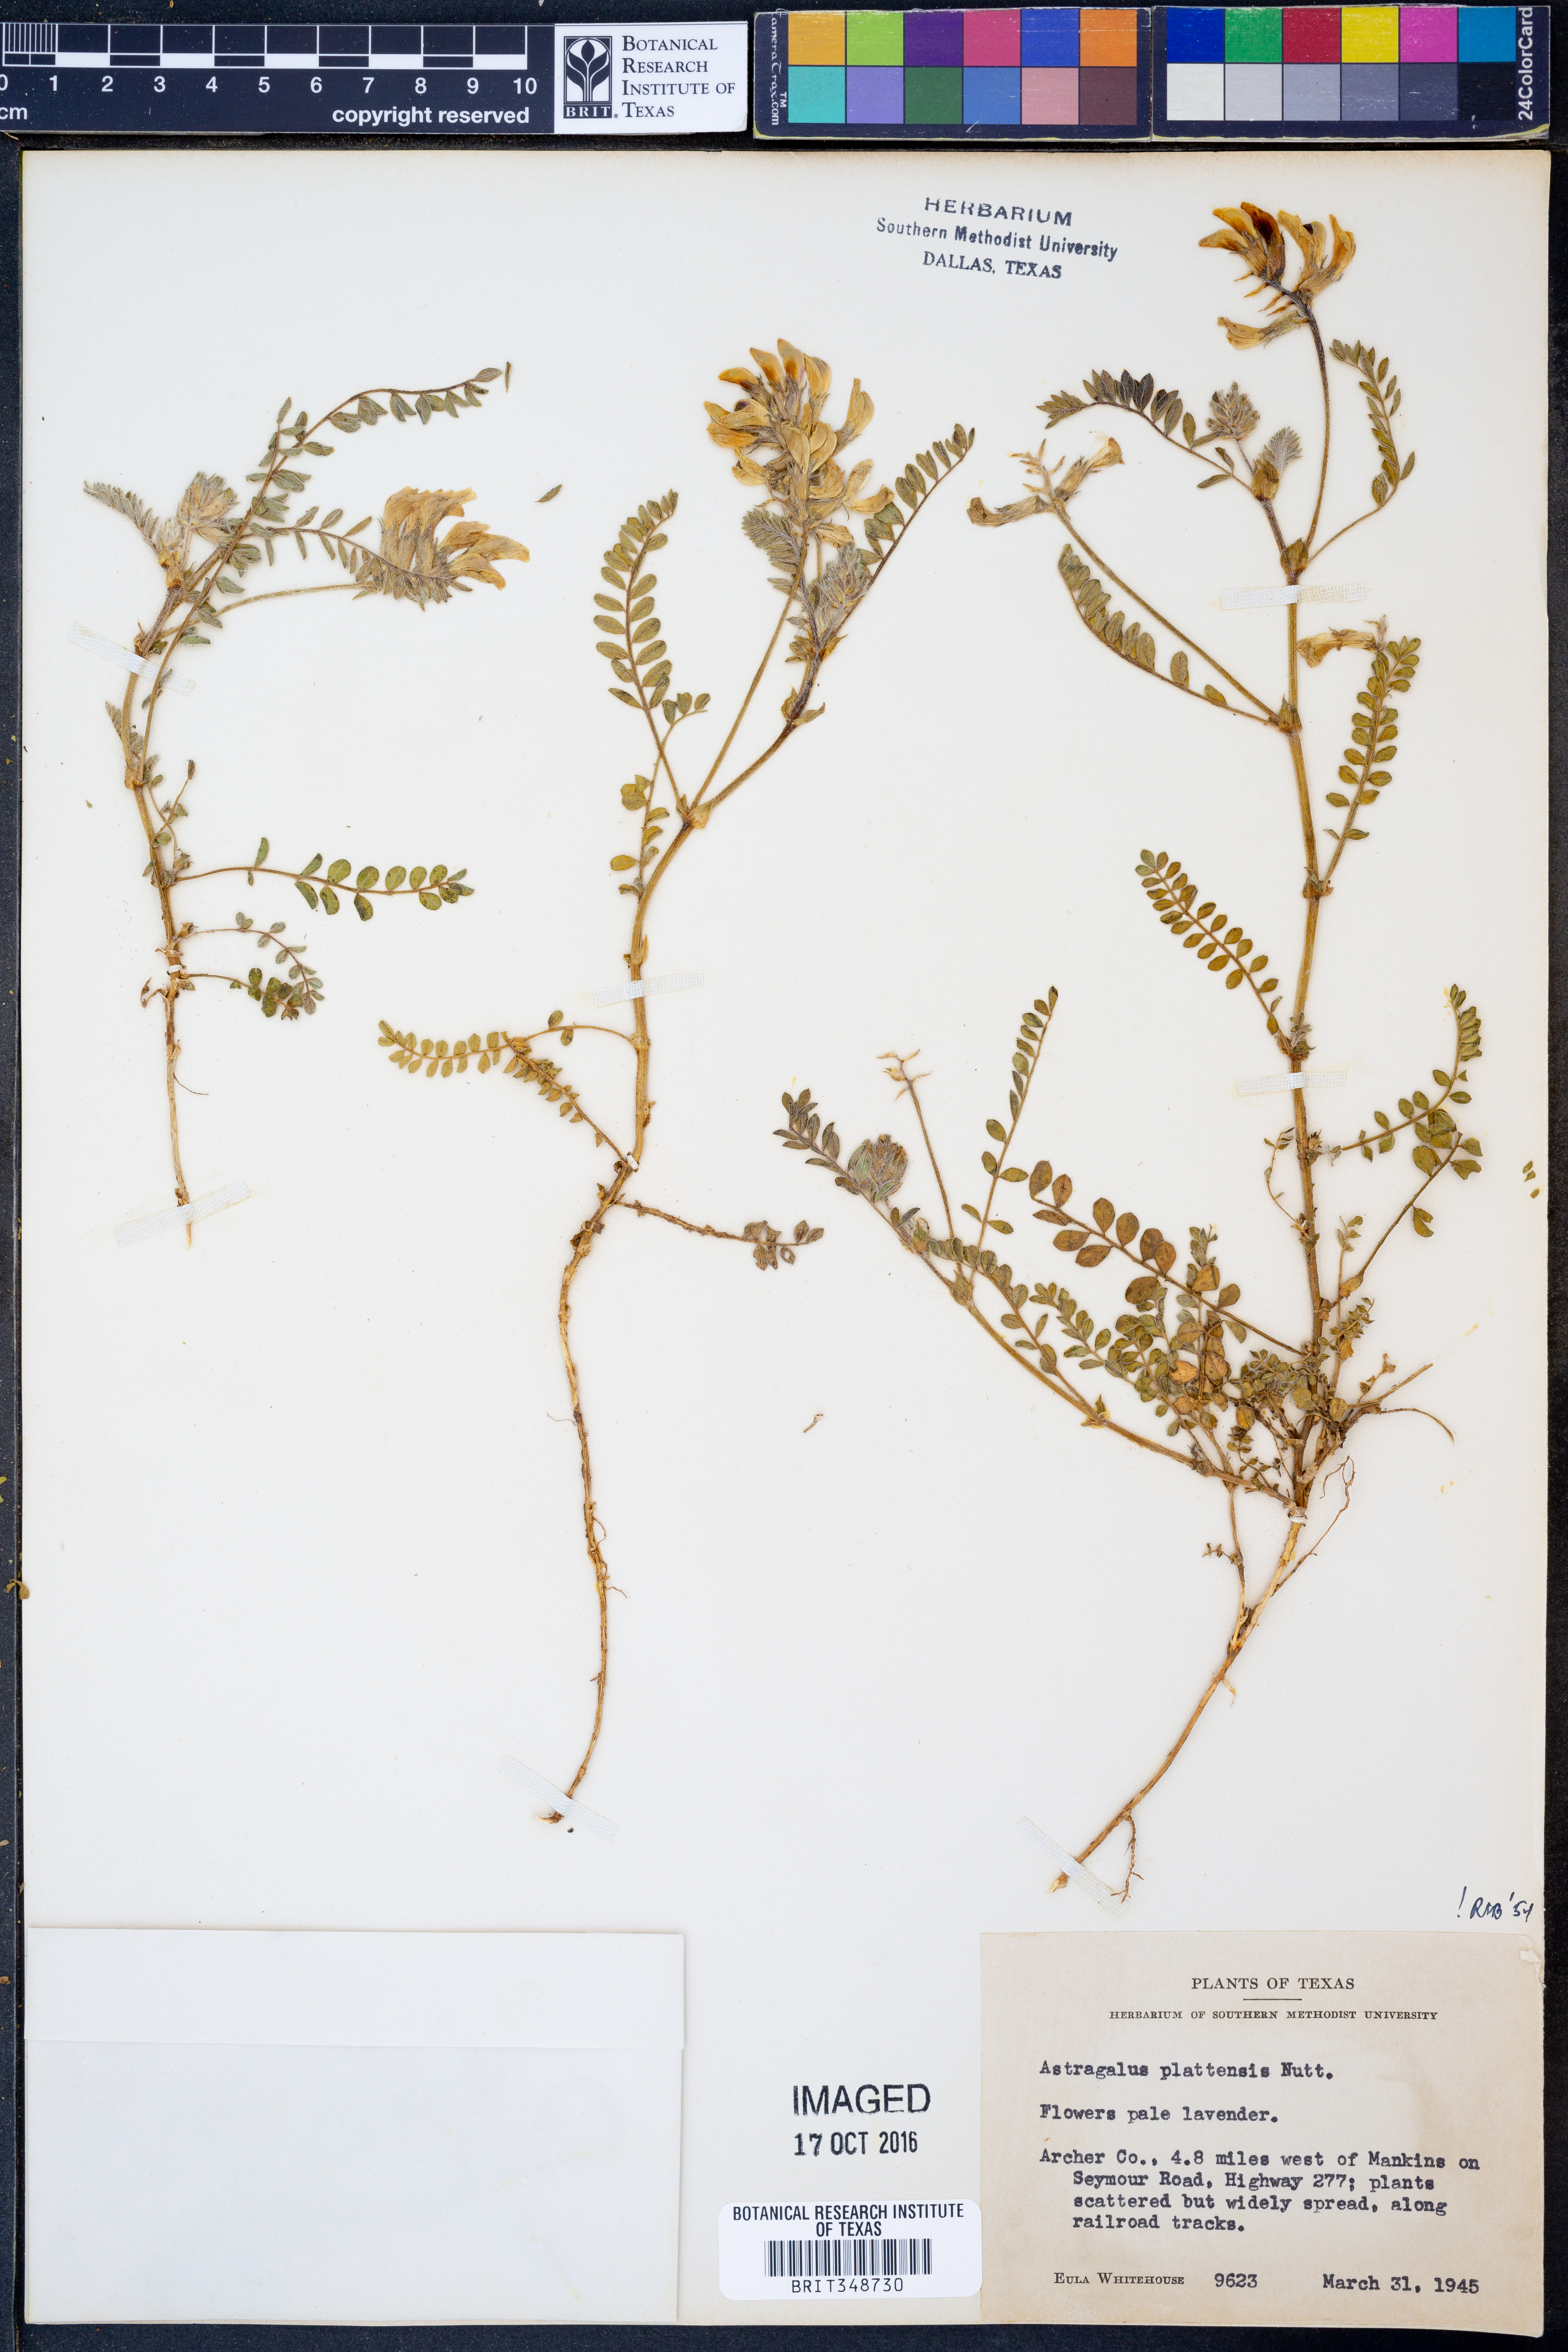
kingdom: Plantae
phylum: Tracheophyta
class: Magnoliopsida
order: Fabales
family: Fabaceae
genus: Astragalus
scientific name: Astragalus plattensis
